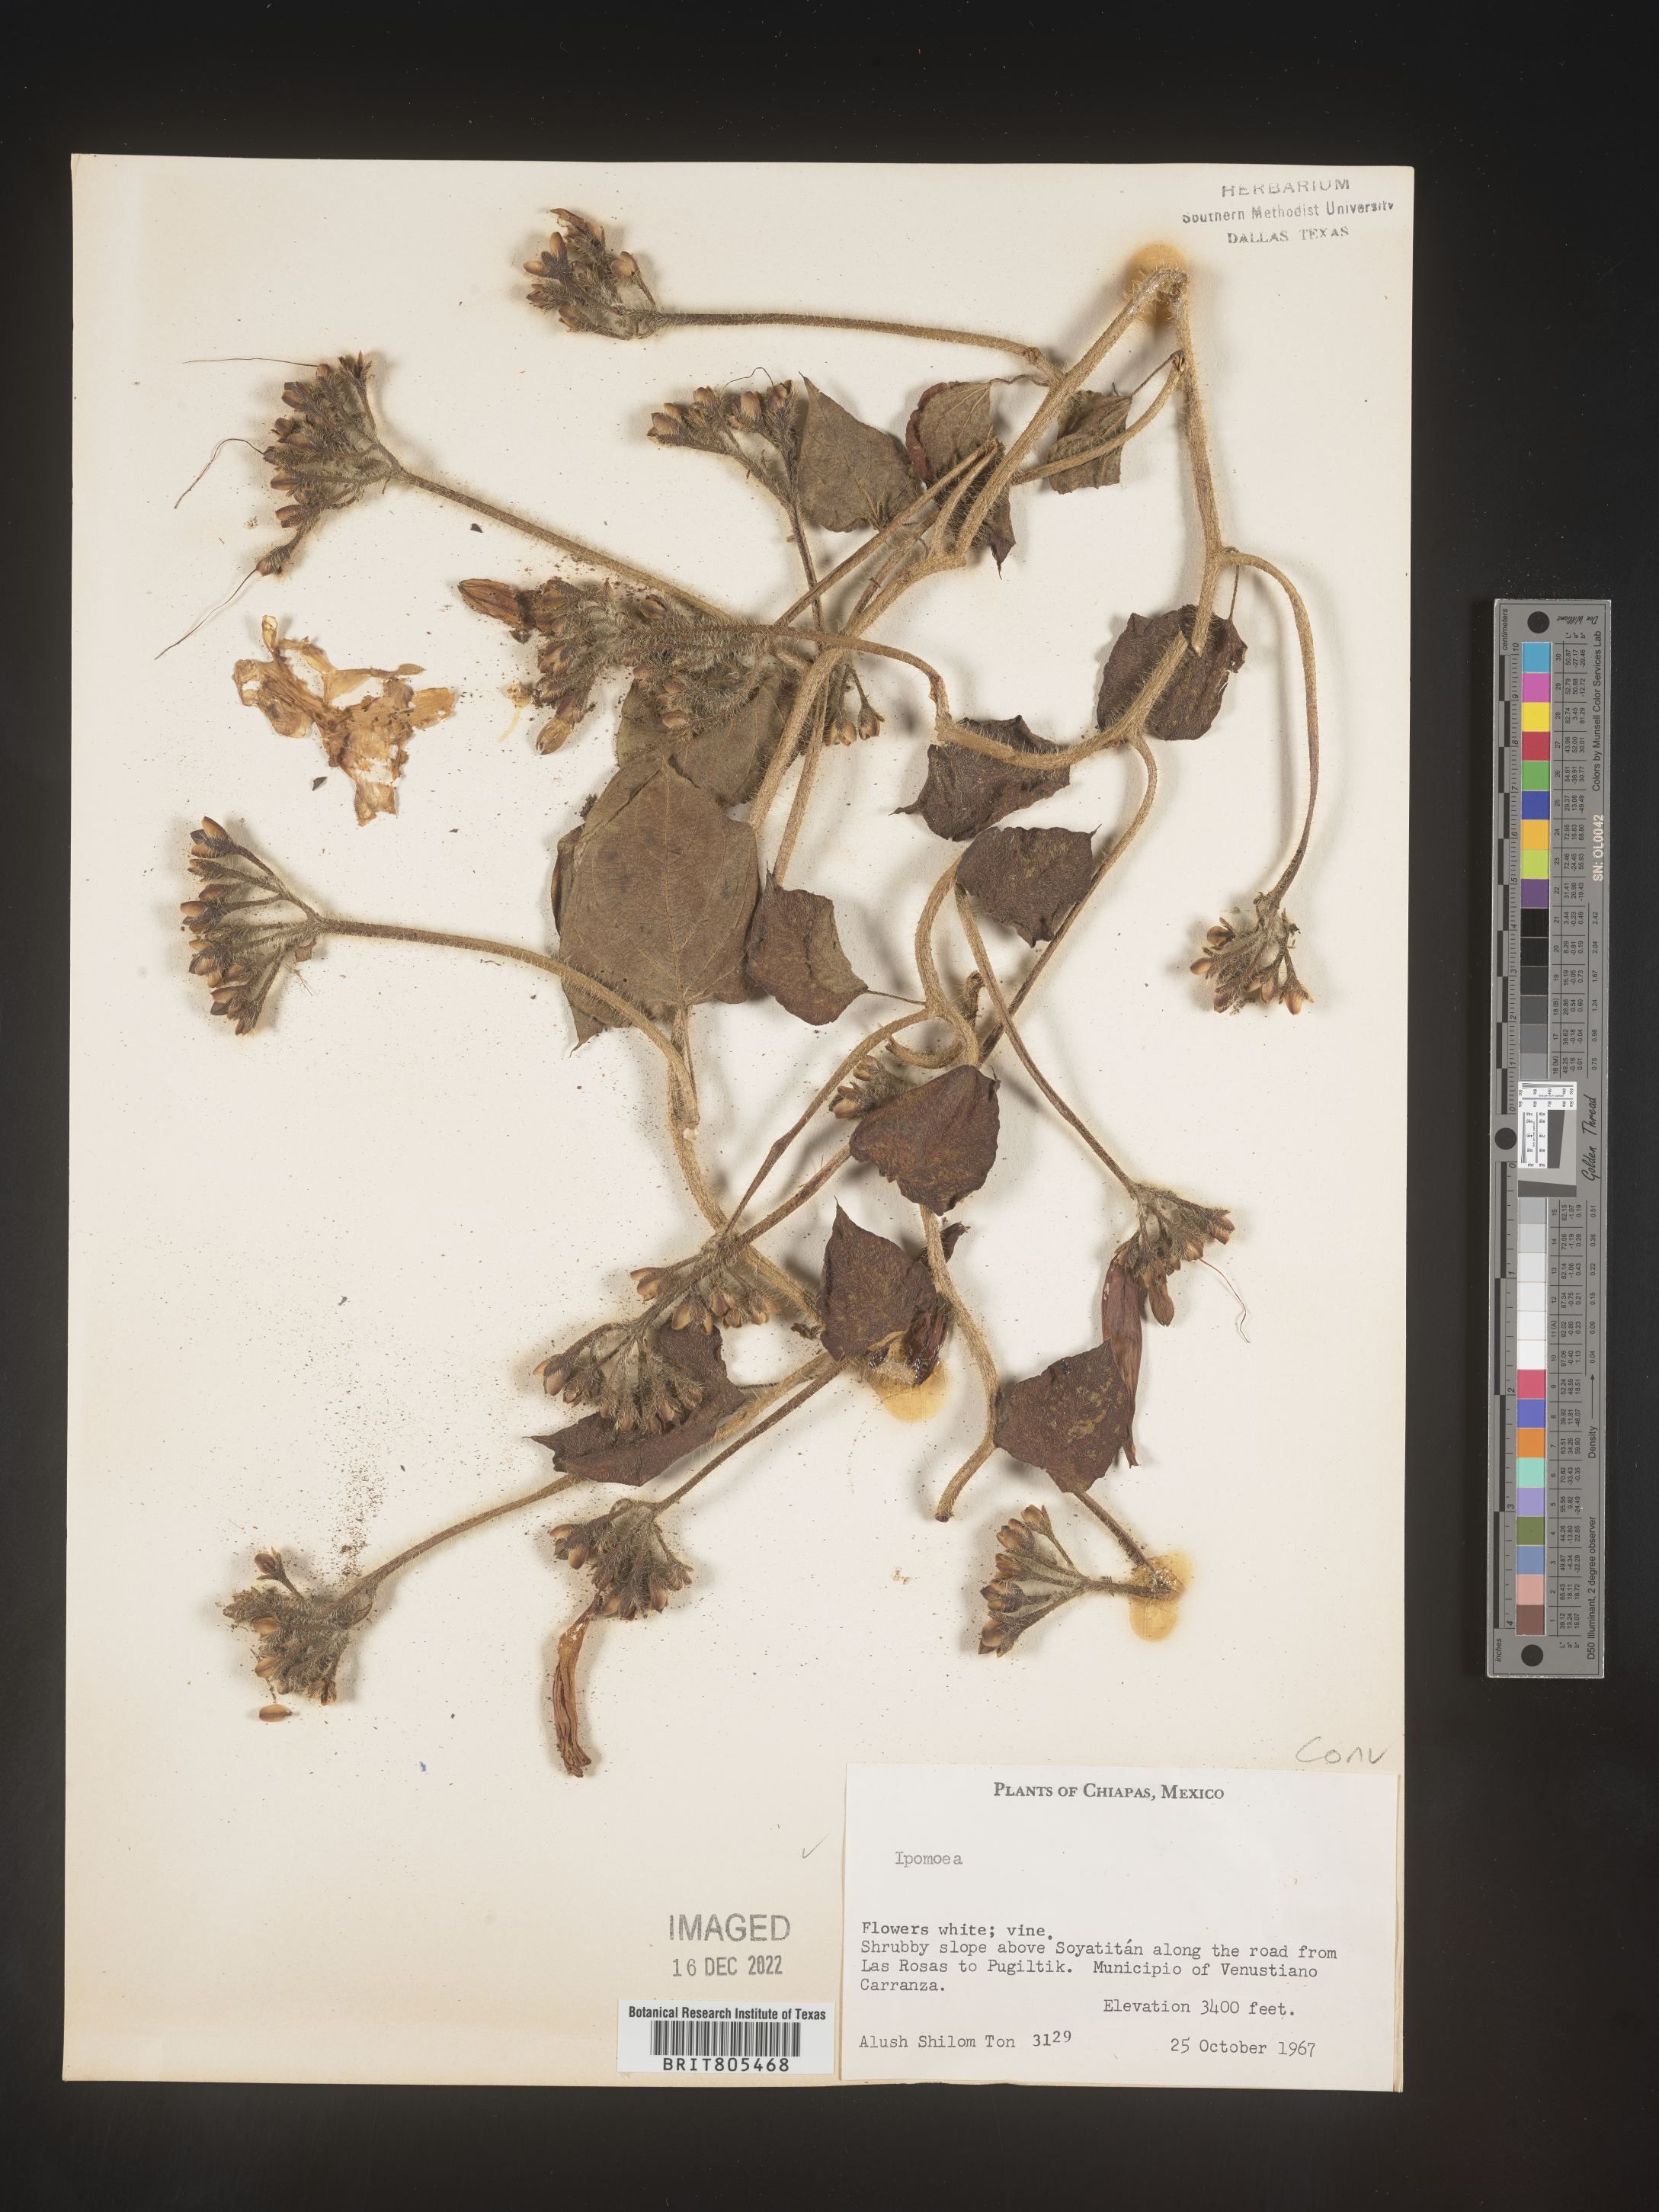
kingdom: Plantae
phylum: Tracheophyta
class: Magnoliopsida
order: Solanales
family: Convolvulaceae
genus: Ipomoea
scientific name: Ipomoea
